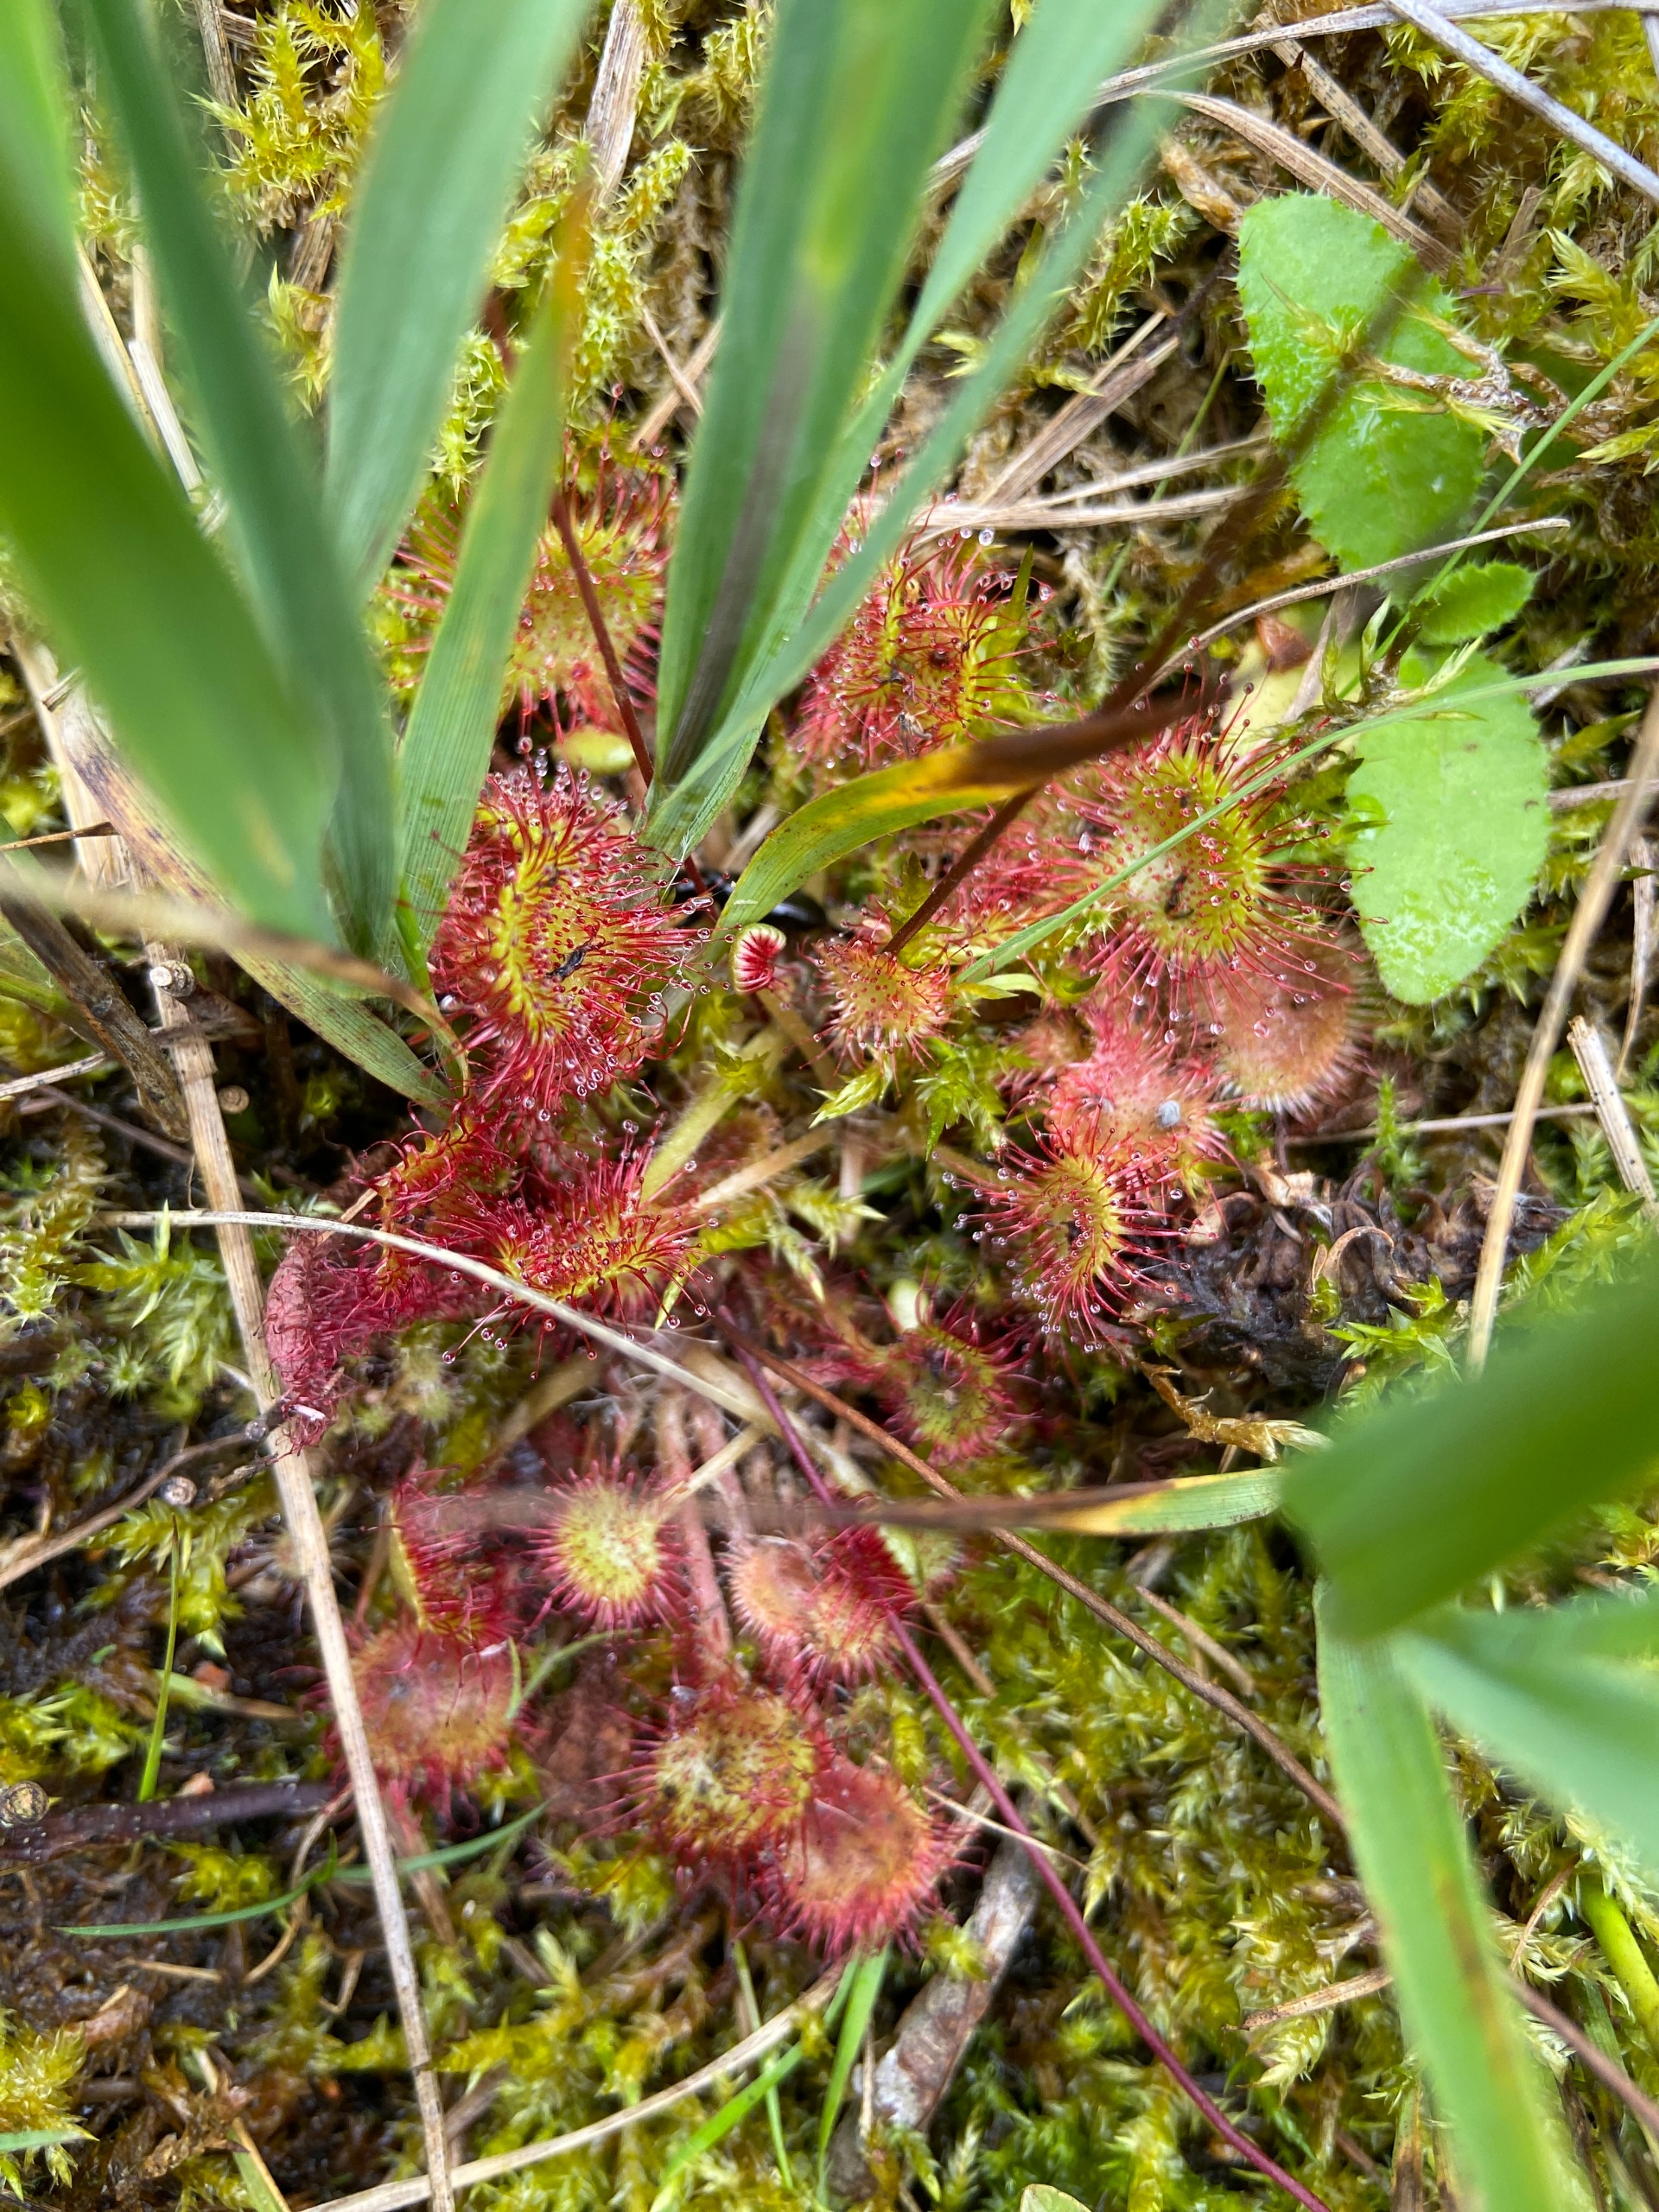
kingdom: Plantae
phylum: Tracheophyta
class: Magnoliopsida
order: Caryophyllales
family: Droseraceae
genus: Drosera
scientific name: Drosera rotundifolia
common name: Rundbladet soldug
